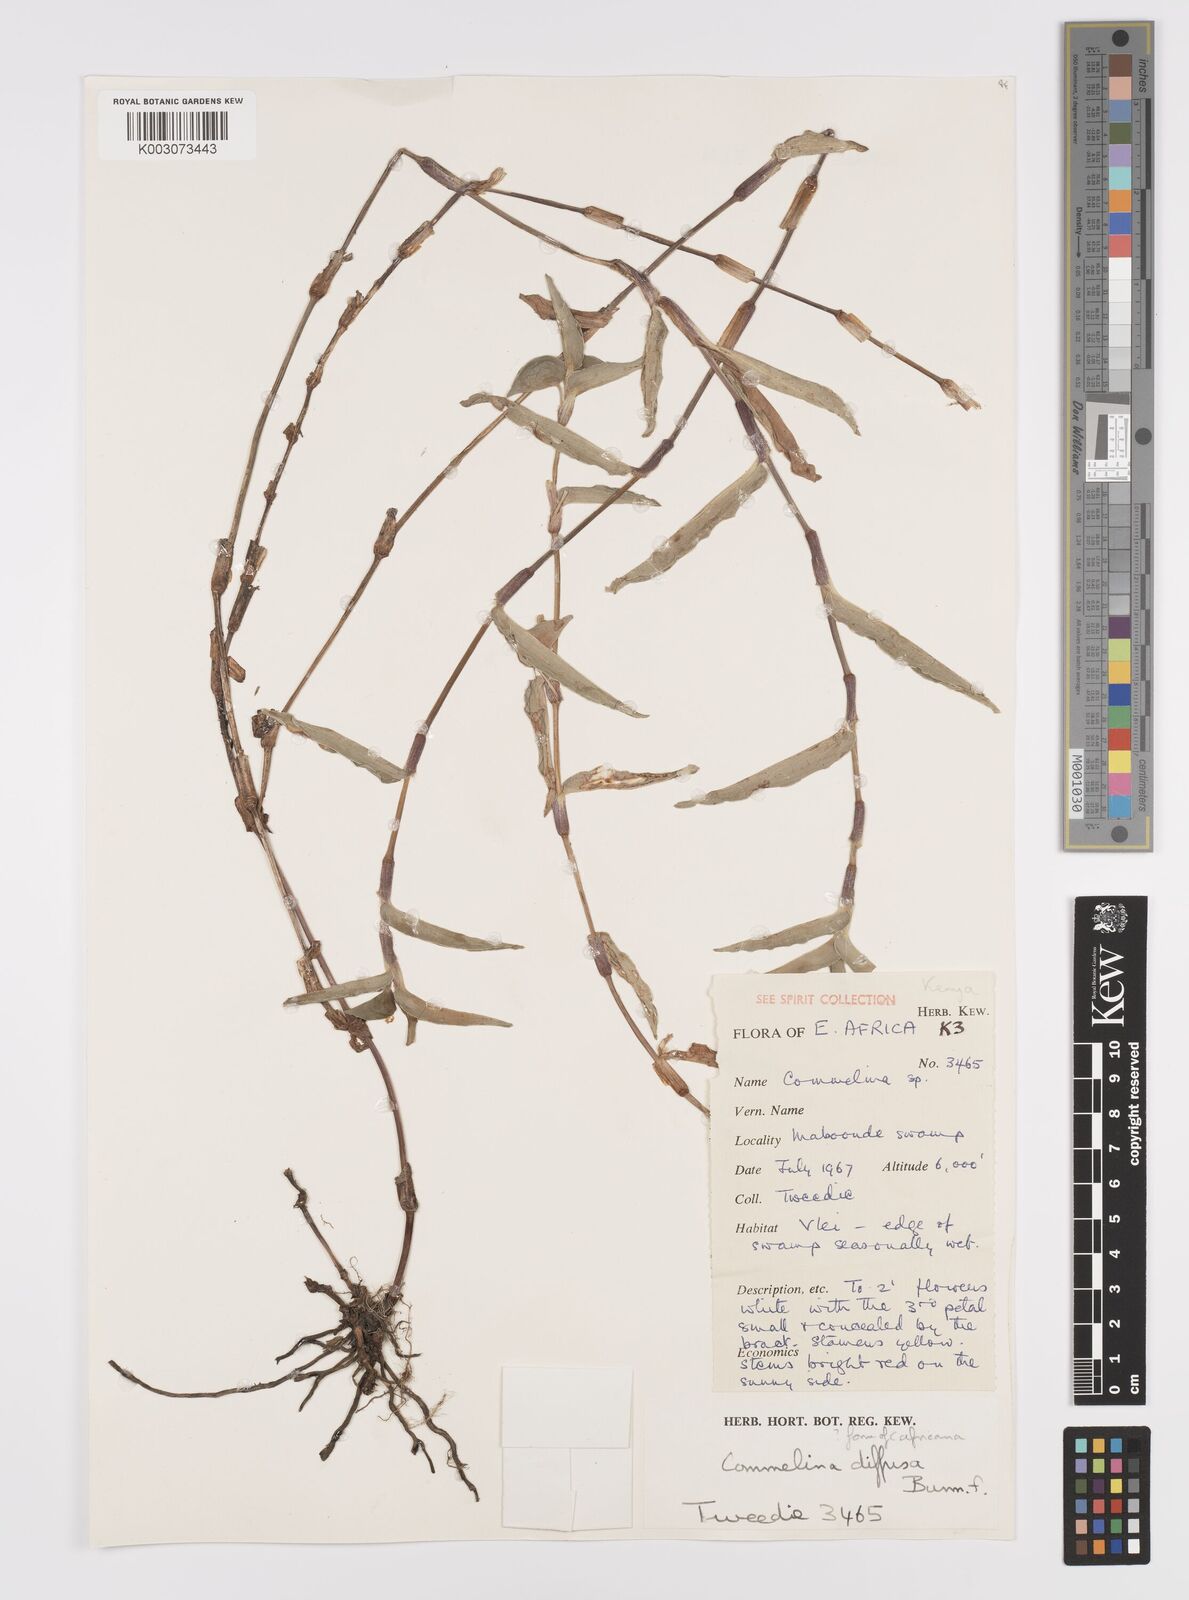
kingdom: Plantae
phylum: Tracheophyta
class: Liliopsida
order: Commelinales
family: Commelinaceae
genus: Commelina
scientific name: Commelina africana
